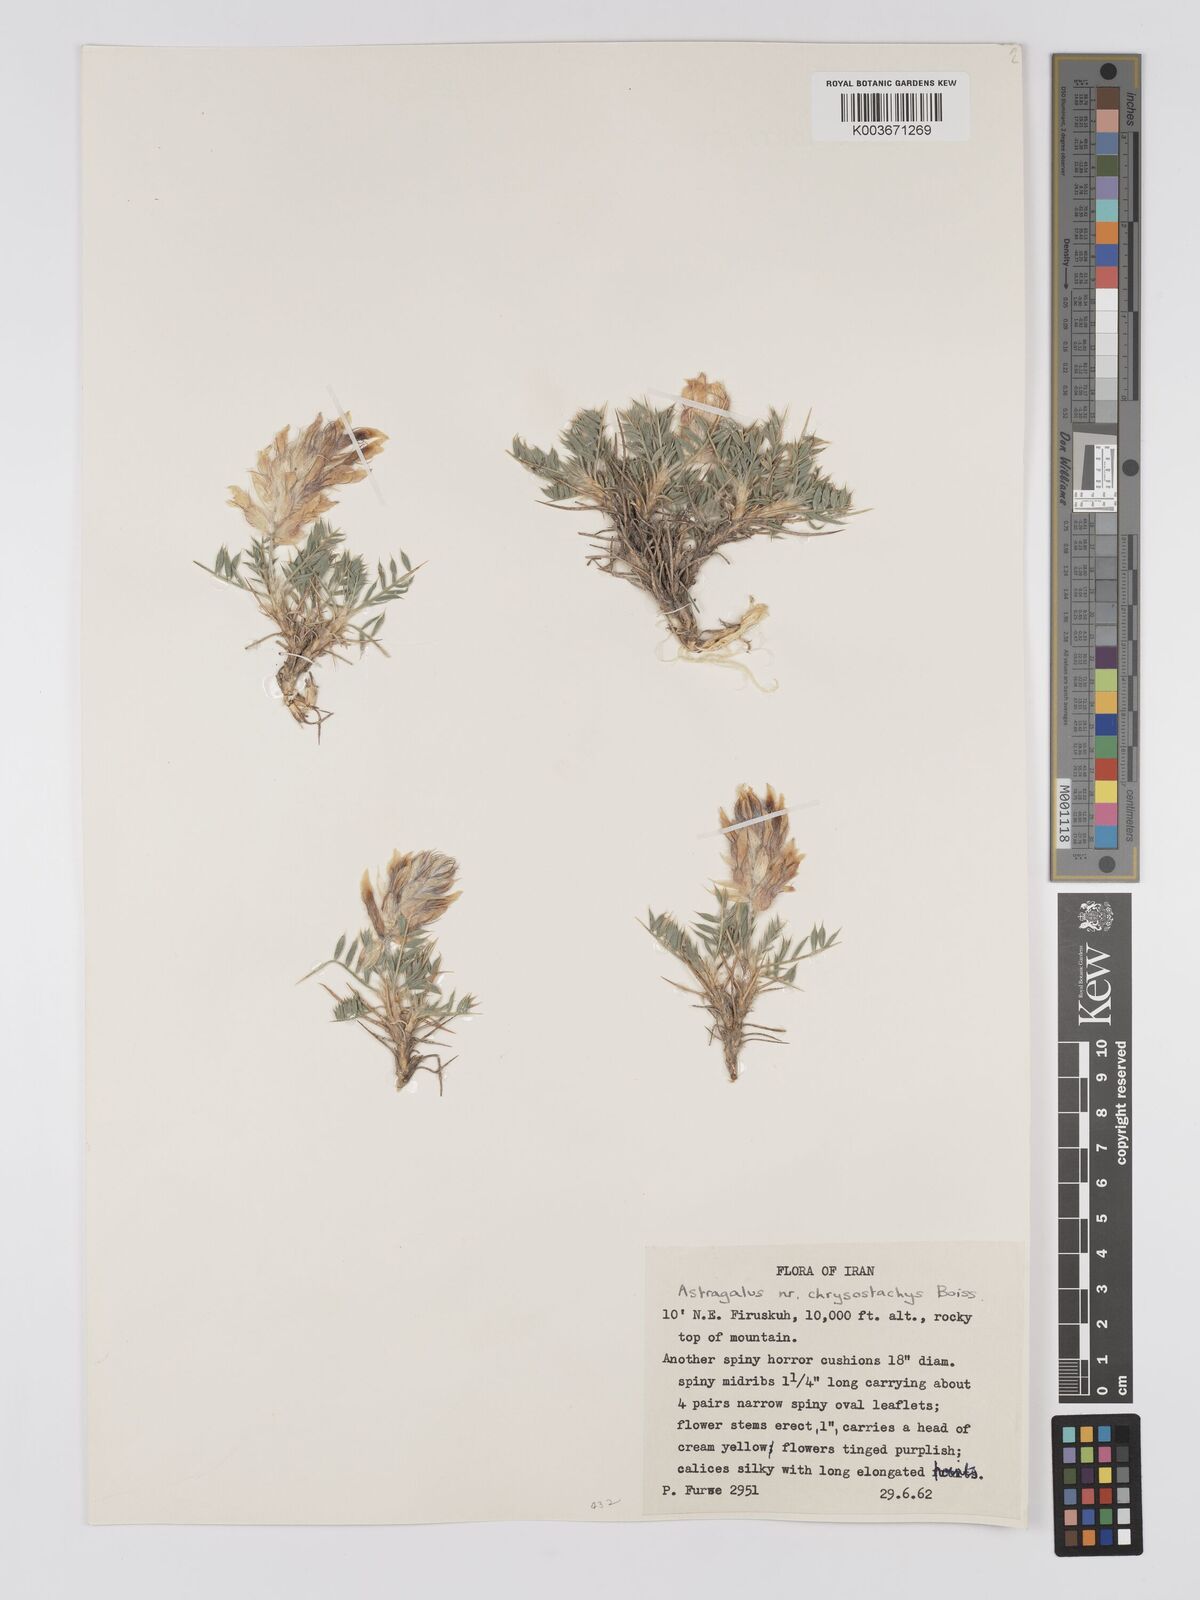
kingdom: Plantae
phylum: Tracheophyta
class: Magnoliopsida
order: Fabales
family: Fabaceae
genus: Astragalus
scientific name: Astragalus chrysostachys
